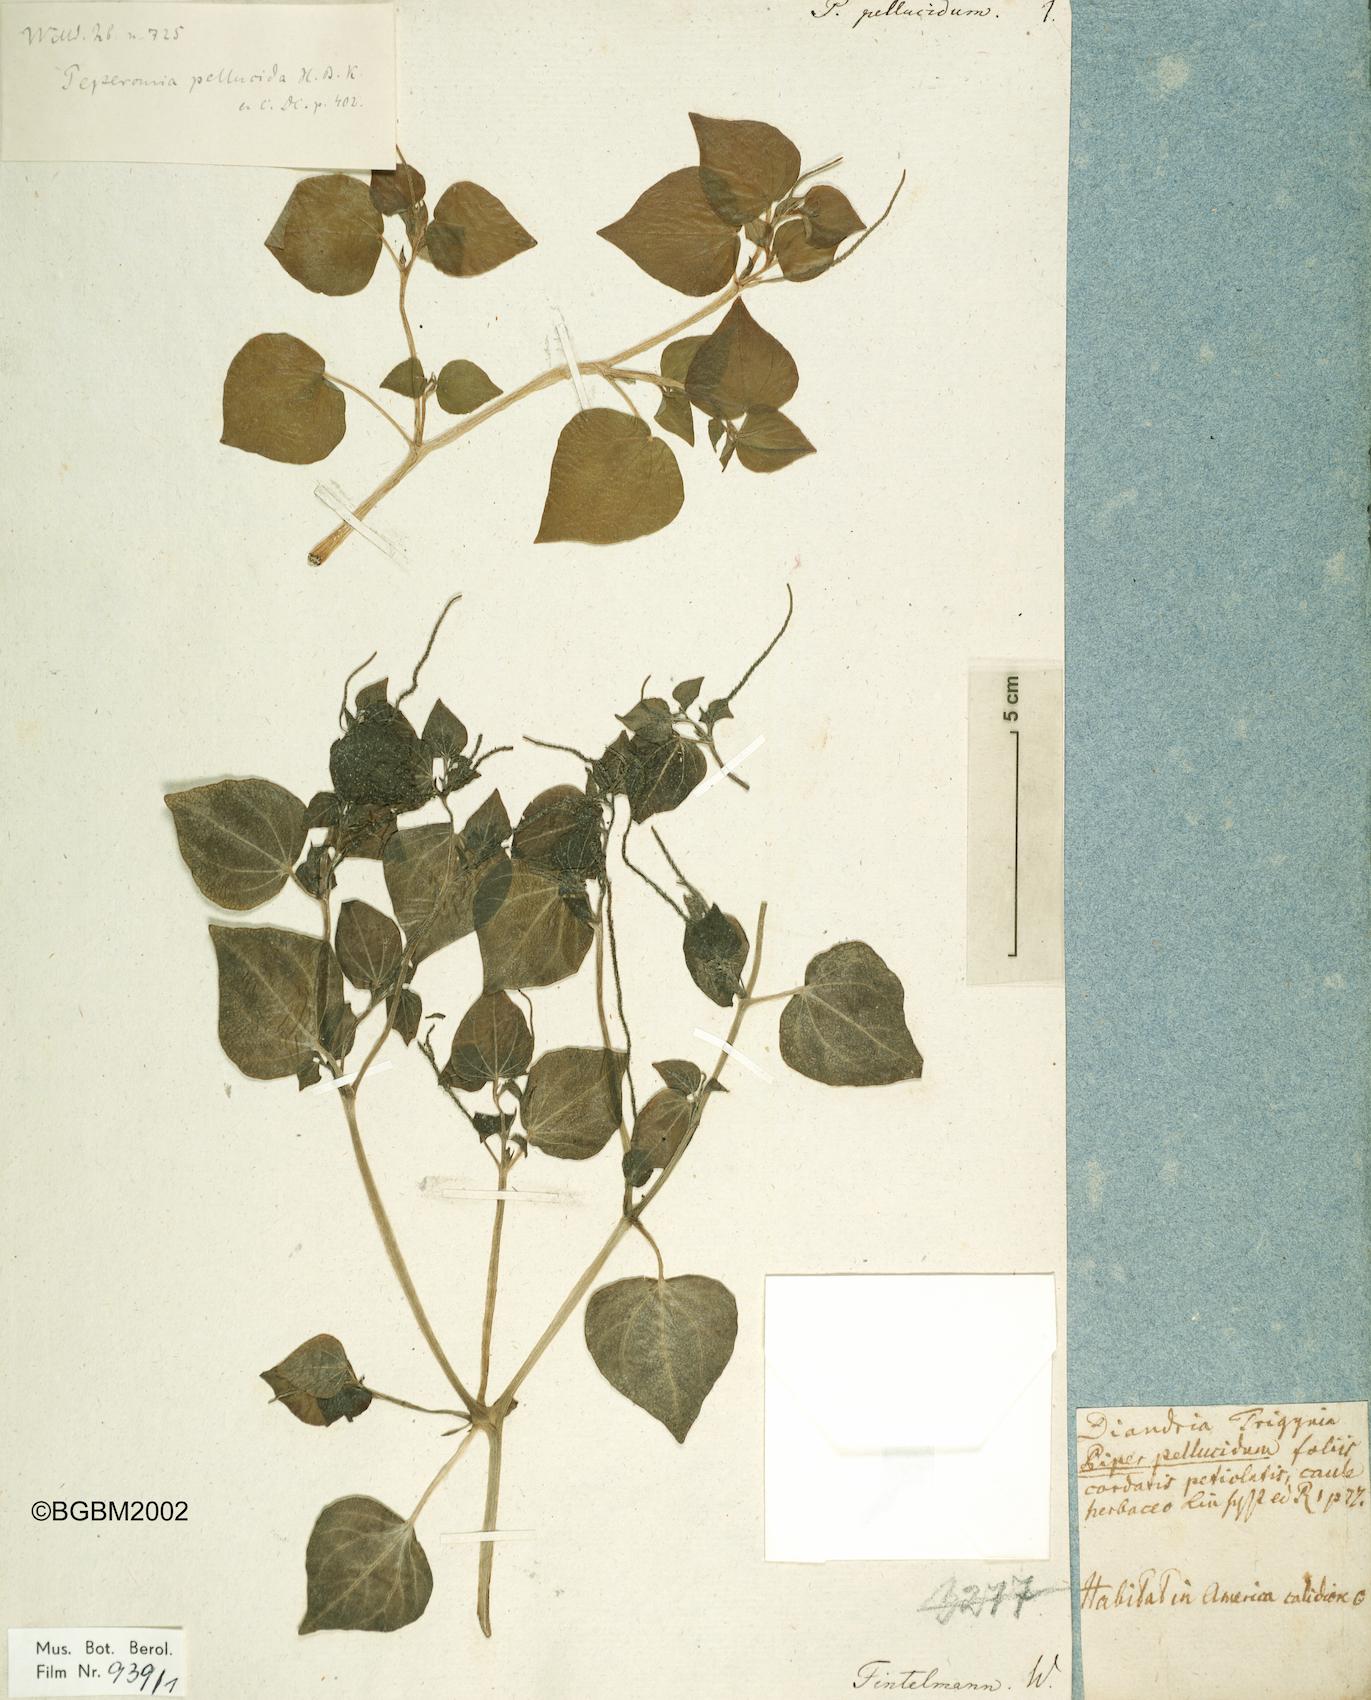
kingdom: Plantae
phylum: Tracheophyta
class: Magnoliopsida
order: Piperales
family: Piperaceae
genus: Peperomia
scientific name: Peperomia pellucida
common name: Man to man
